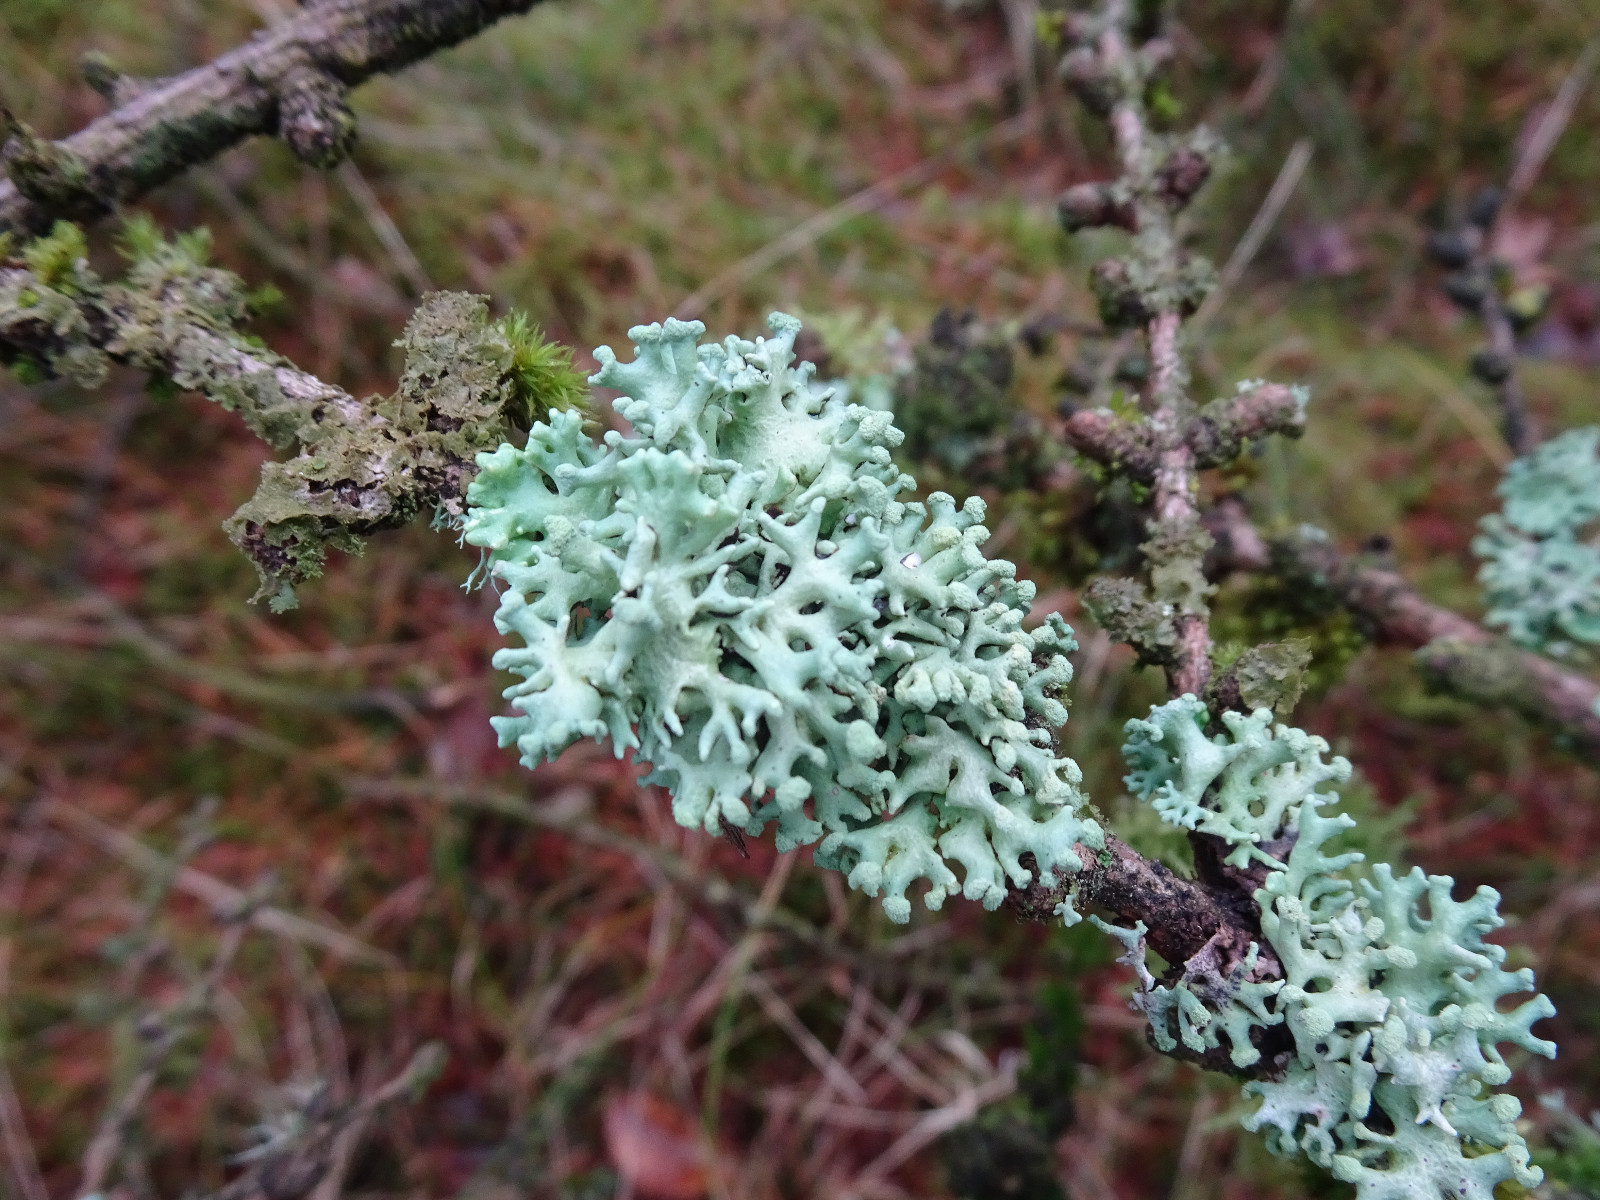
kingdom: Fungi
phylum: Ascomycota
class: Lecanoromycetes
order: Lecanorales
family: Parmeliaceae
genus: Hypogymnia
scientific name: Hypogymnia tubulosa
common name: finger-kvistlav
